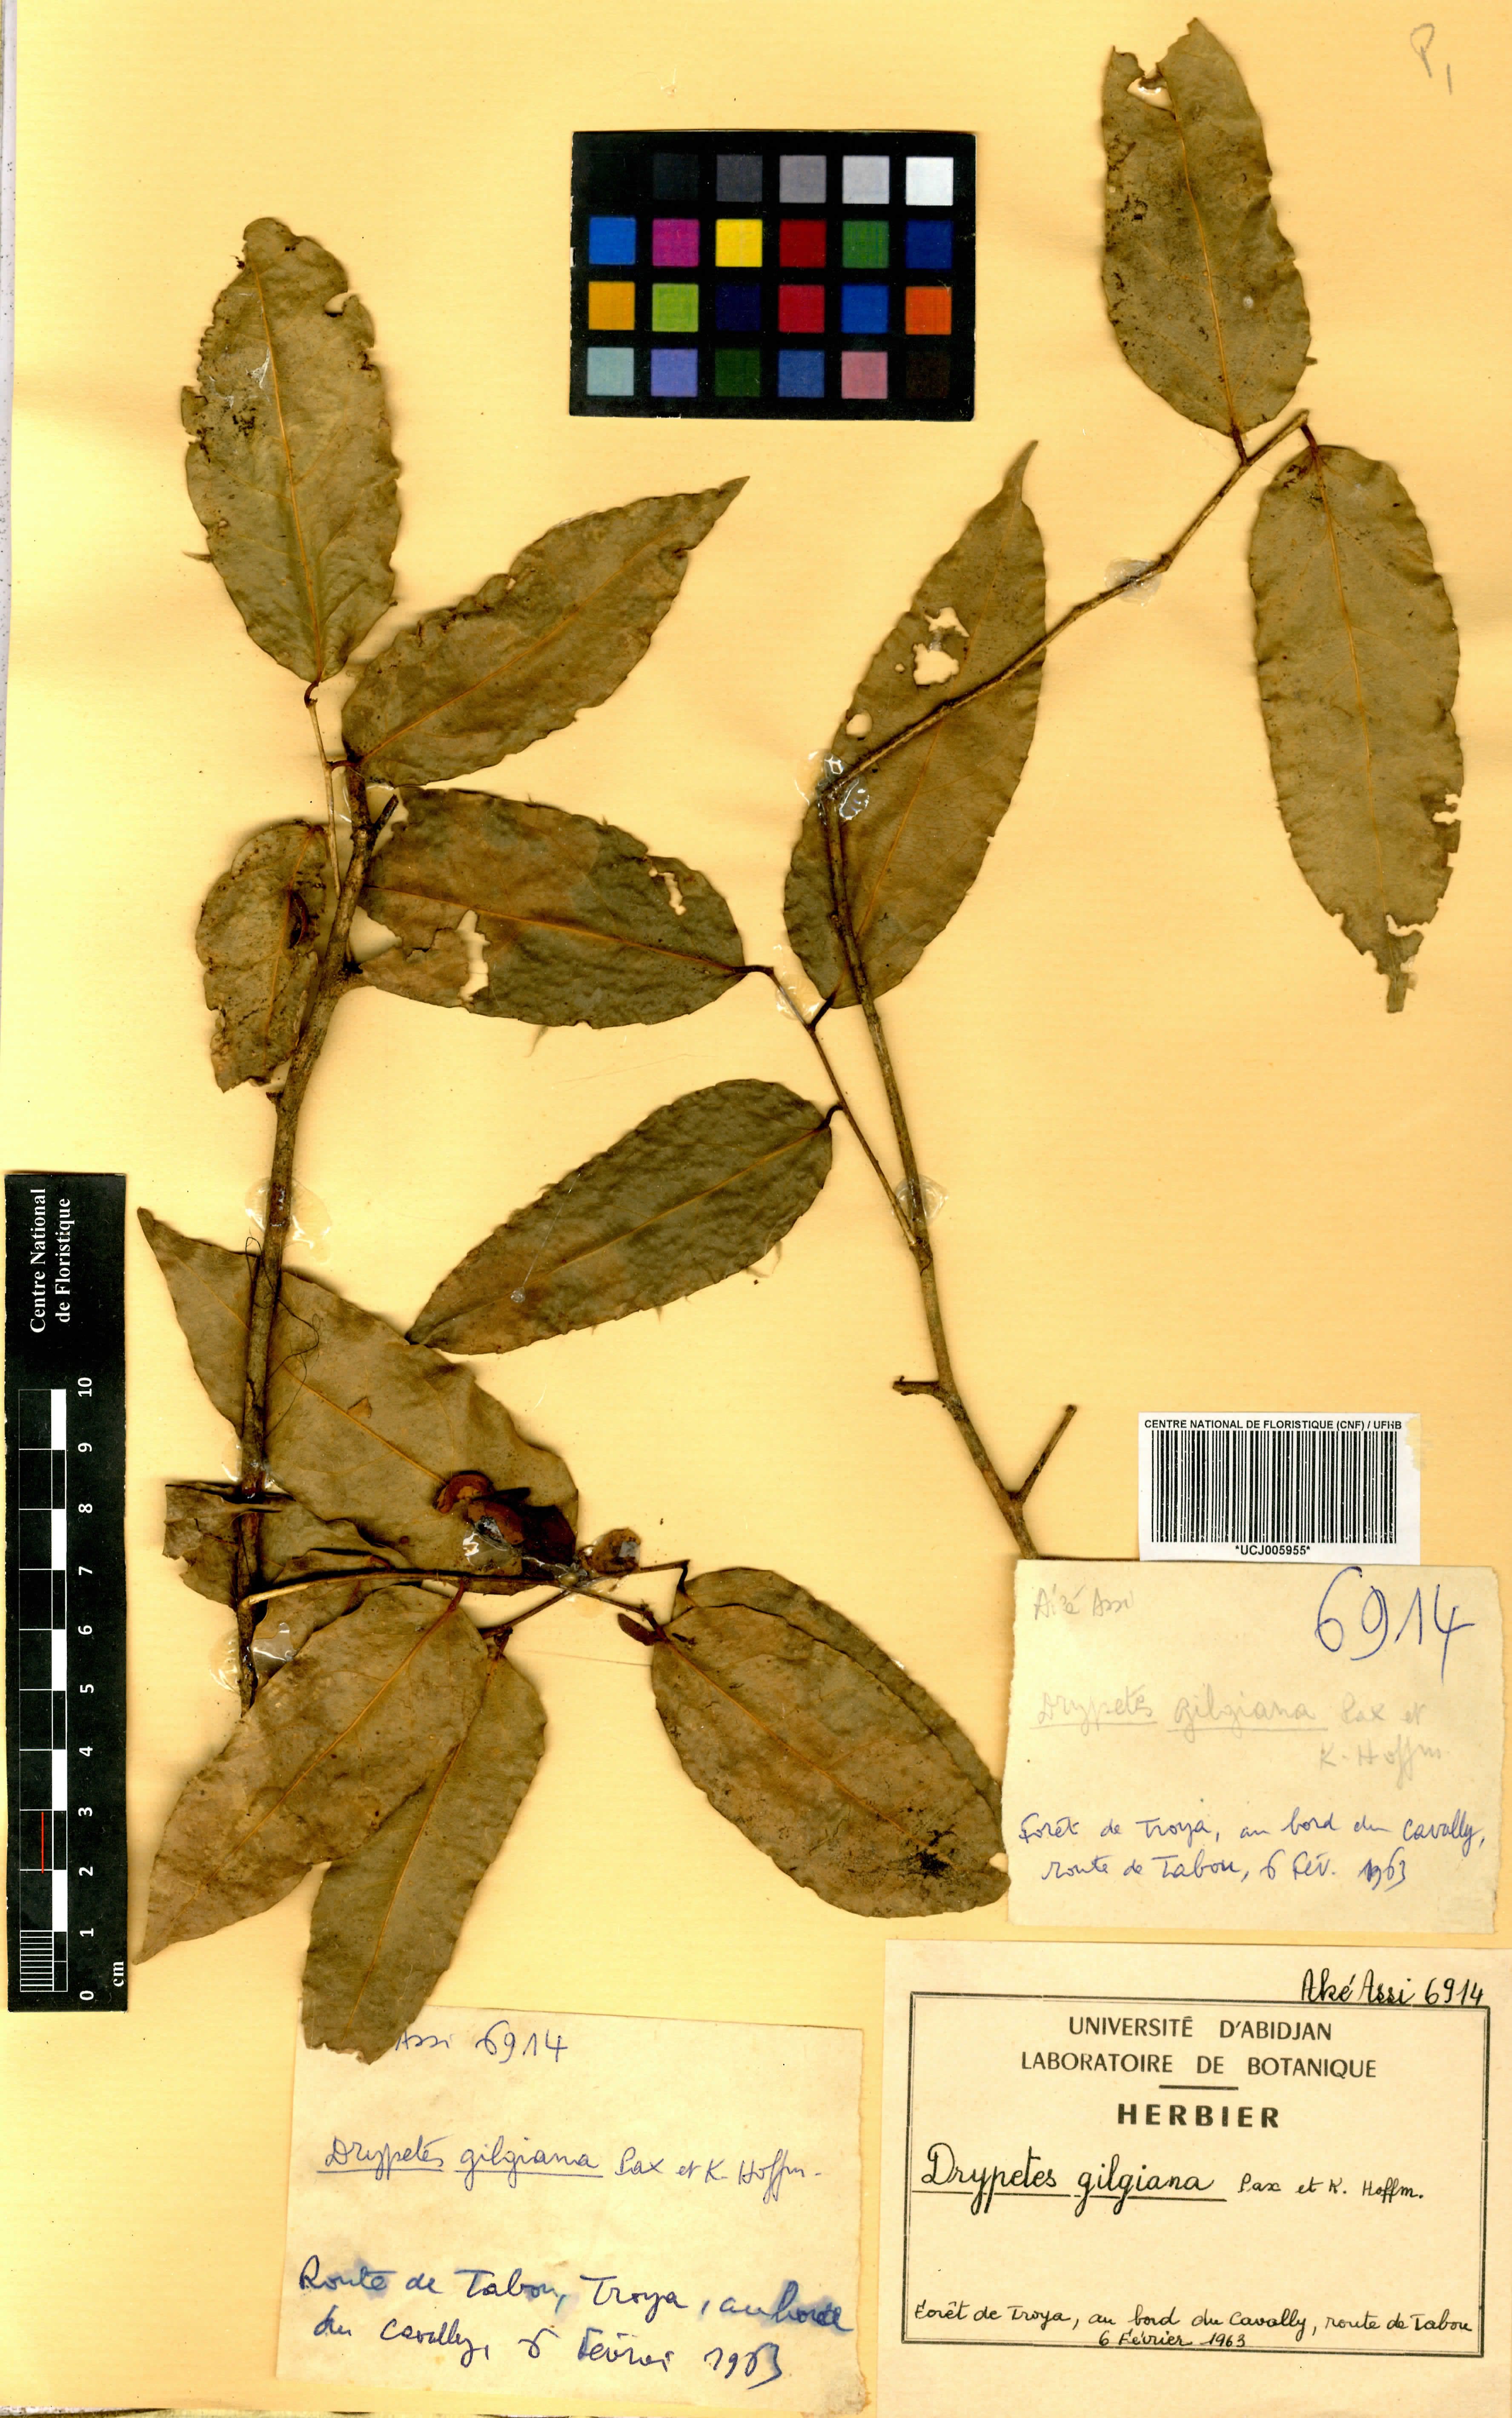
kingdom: Plantae
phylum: Tracheophyta
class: Magnoliopsida
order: Malpighiales
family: Putranjivaceae
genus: Drypetes
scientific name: Drypetes gilgiana
